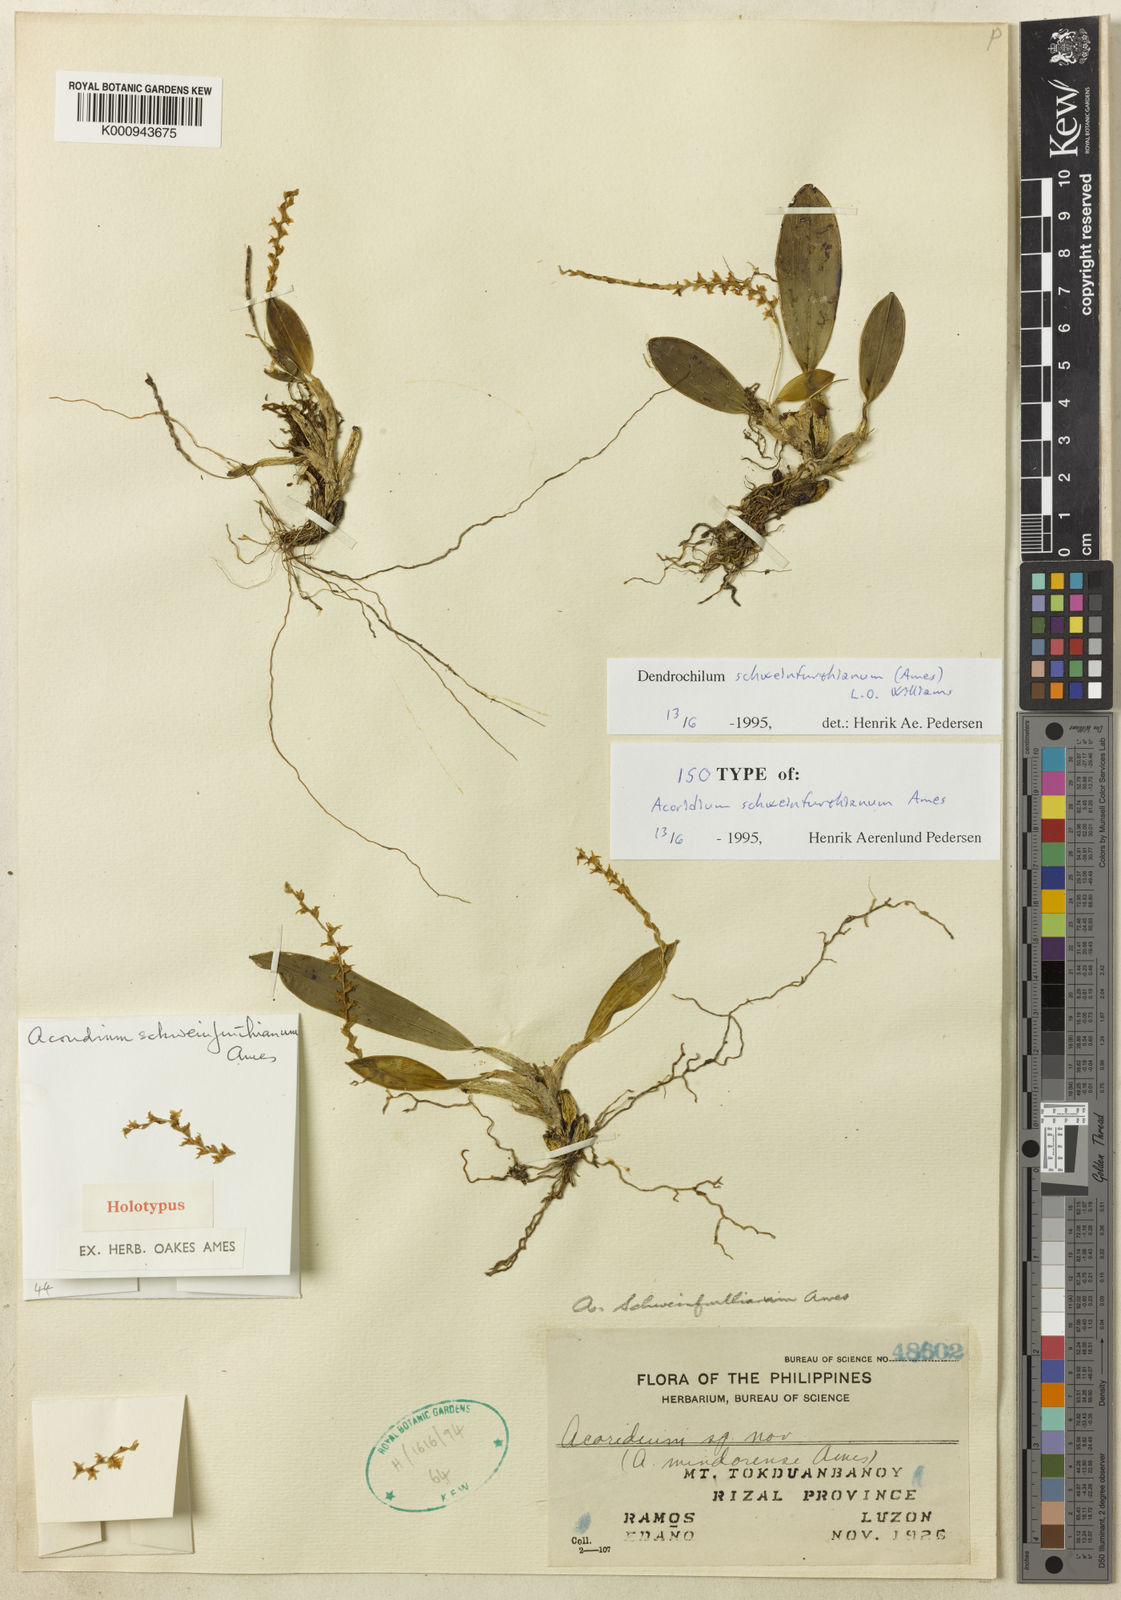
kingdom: Plantae
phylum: Tracheophyta
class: Liliopsida
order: Asparagales
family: Orchidaceae
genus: Coelogyne
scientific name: Coelogyne tokduanbanoyana
